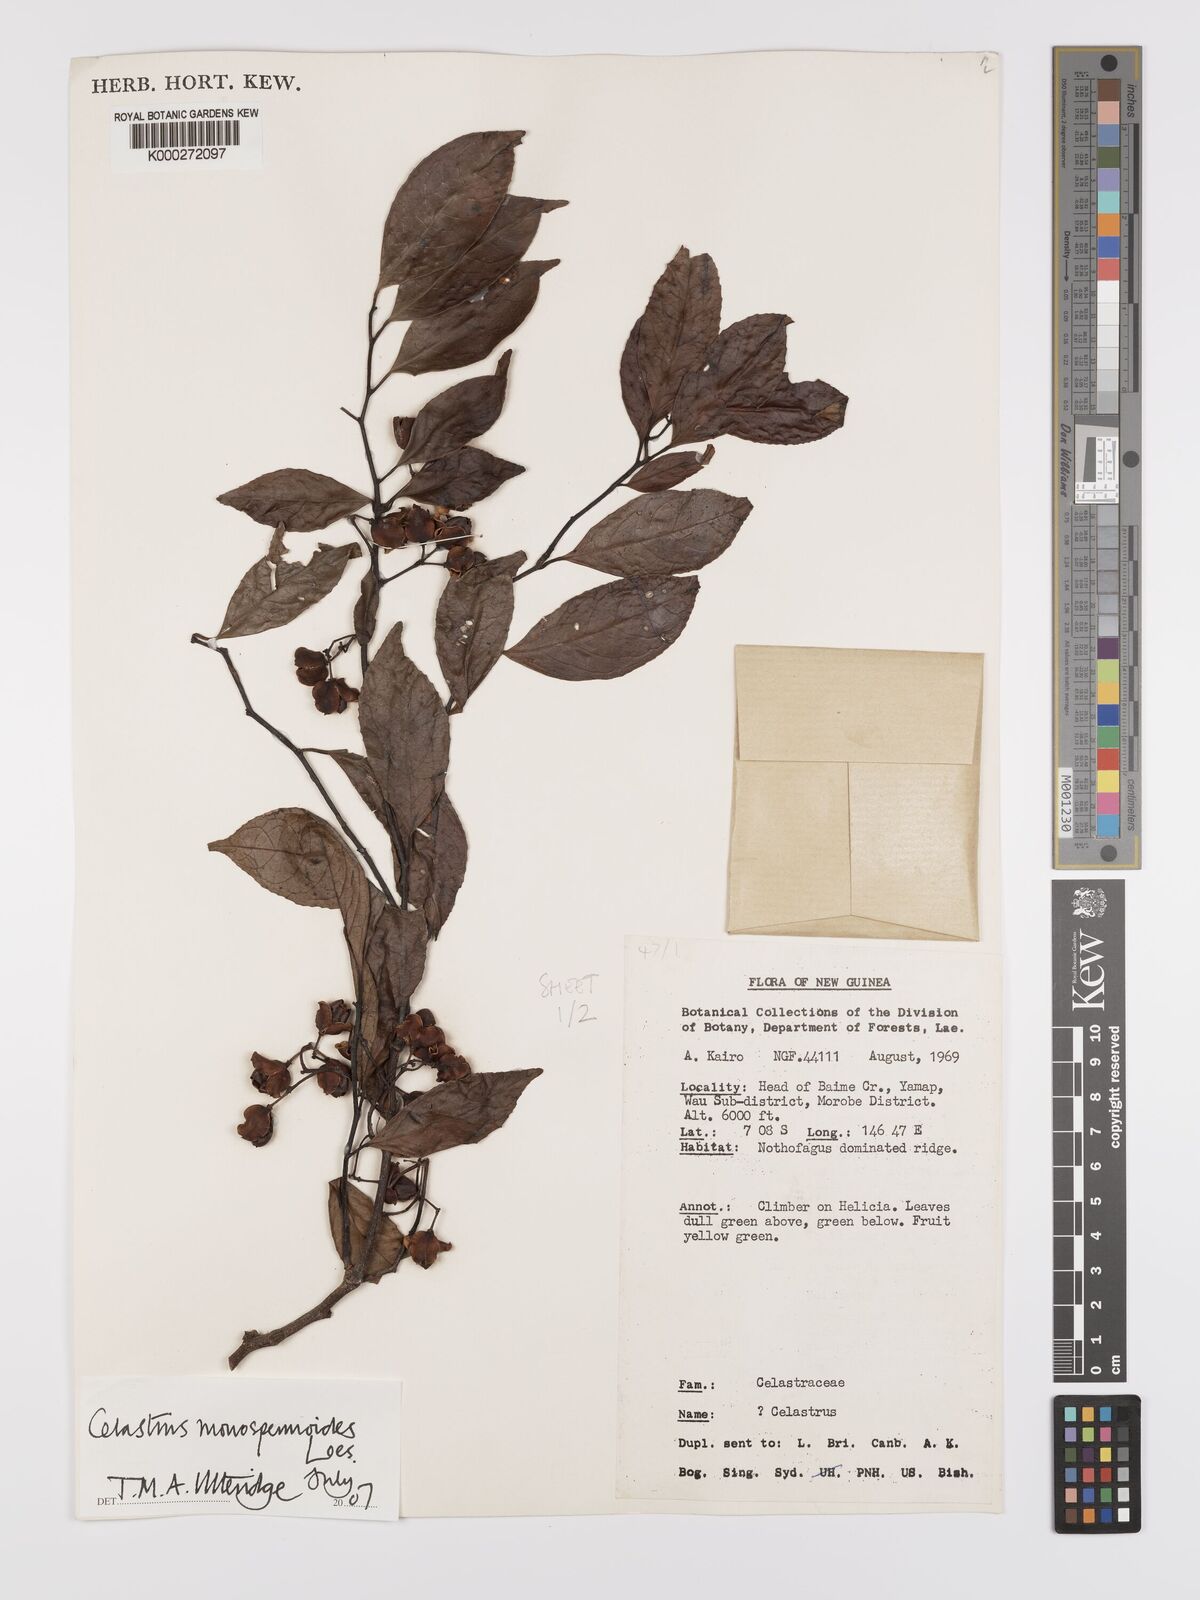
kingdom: Plantae
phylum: Tracheophyta
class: Magnoliopsida
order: Celastrales
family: Celastraceae
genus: Celastrus
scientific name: Celastrus monospermoides
